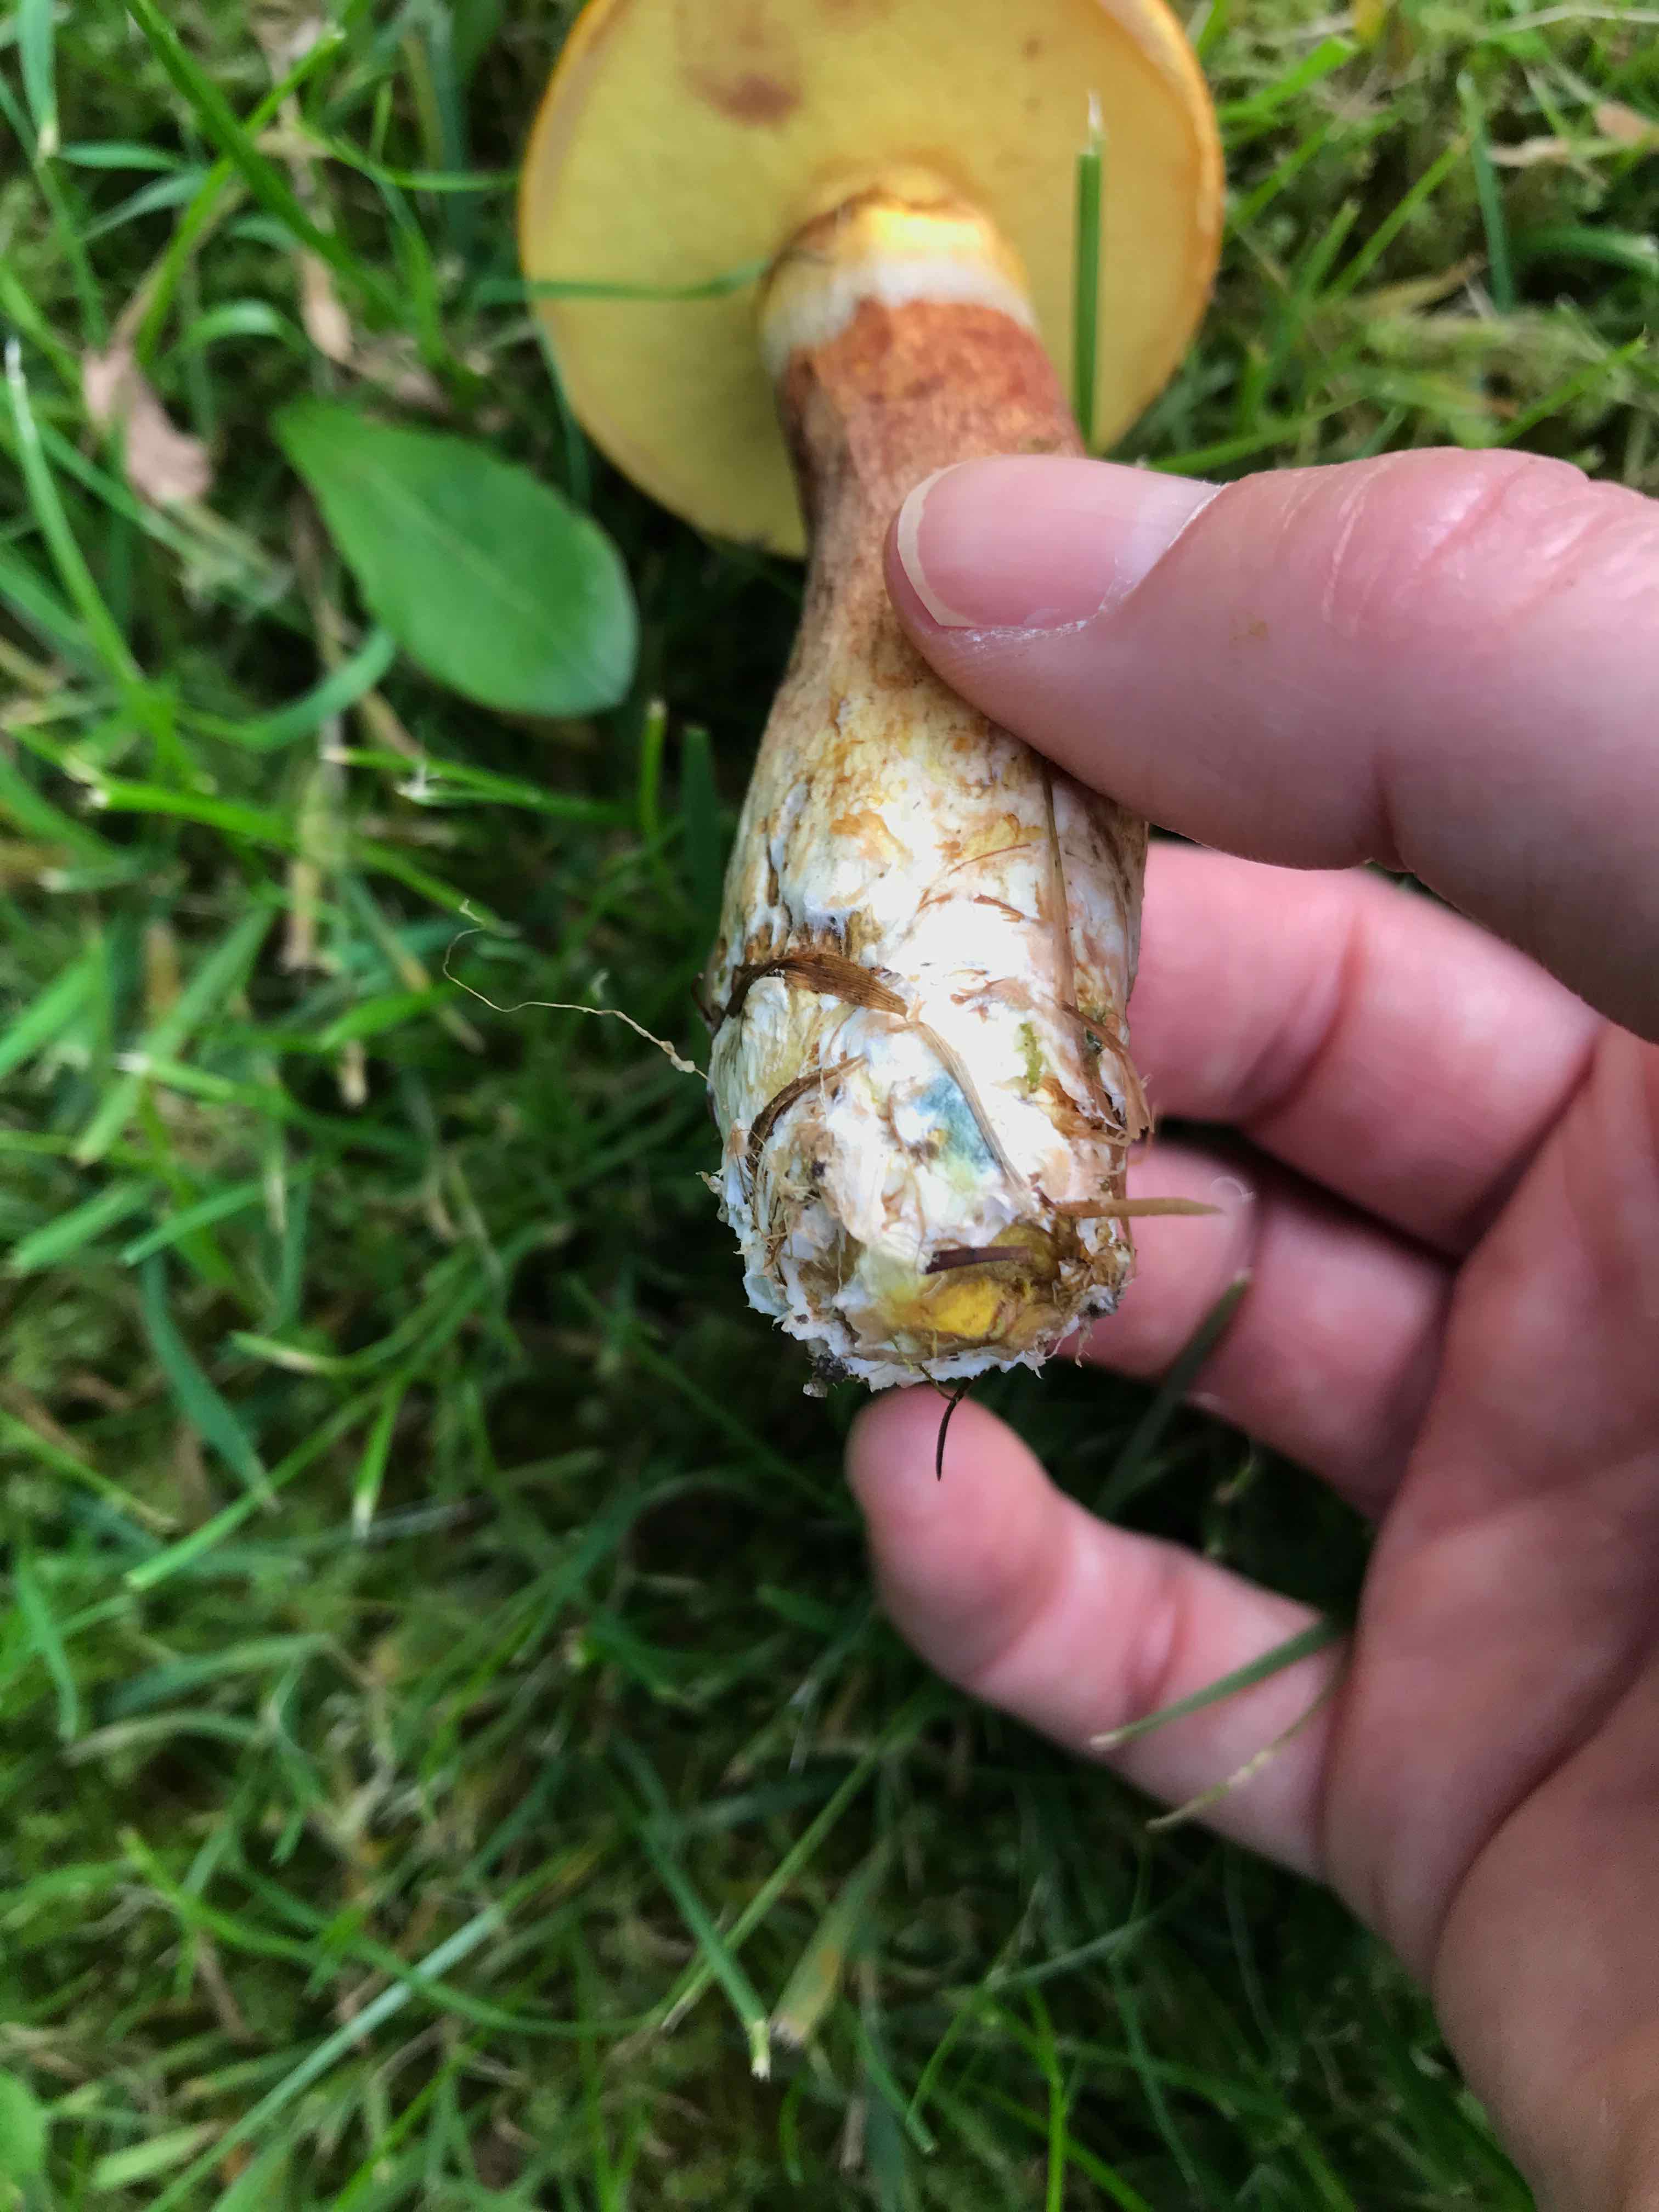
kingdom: Fungi
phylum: Basidiomycota
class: Agaricomycetes
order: Boletales
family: Suillaceae
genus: Suillus
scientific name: Suillus grevillei
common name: lærke-slimrørhat
